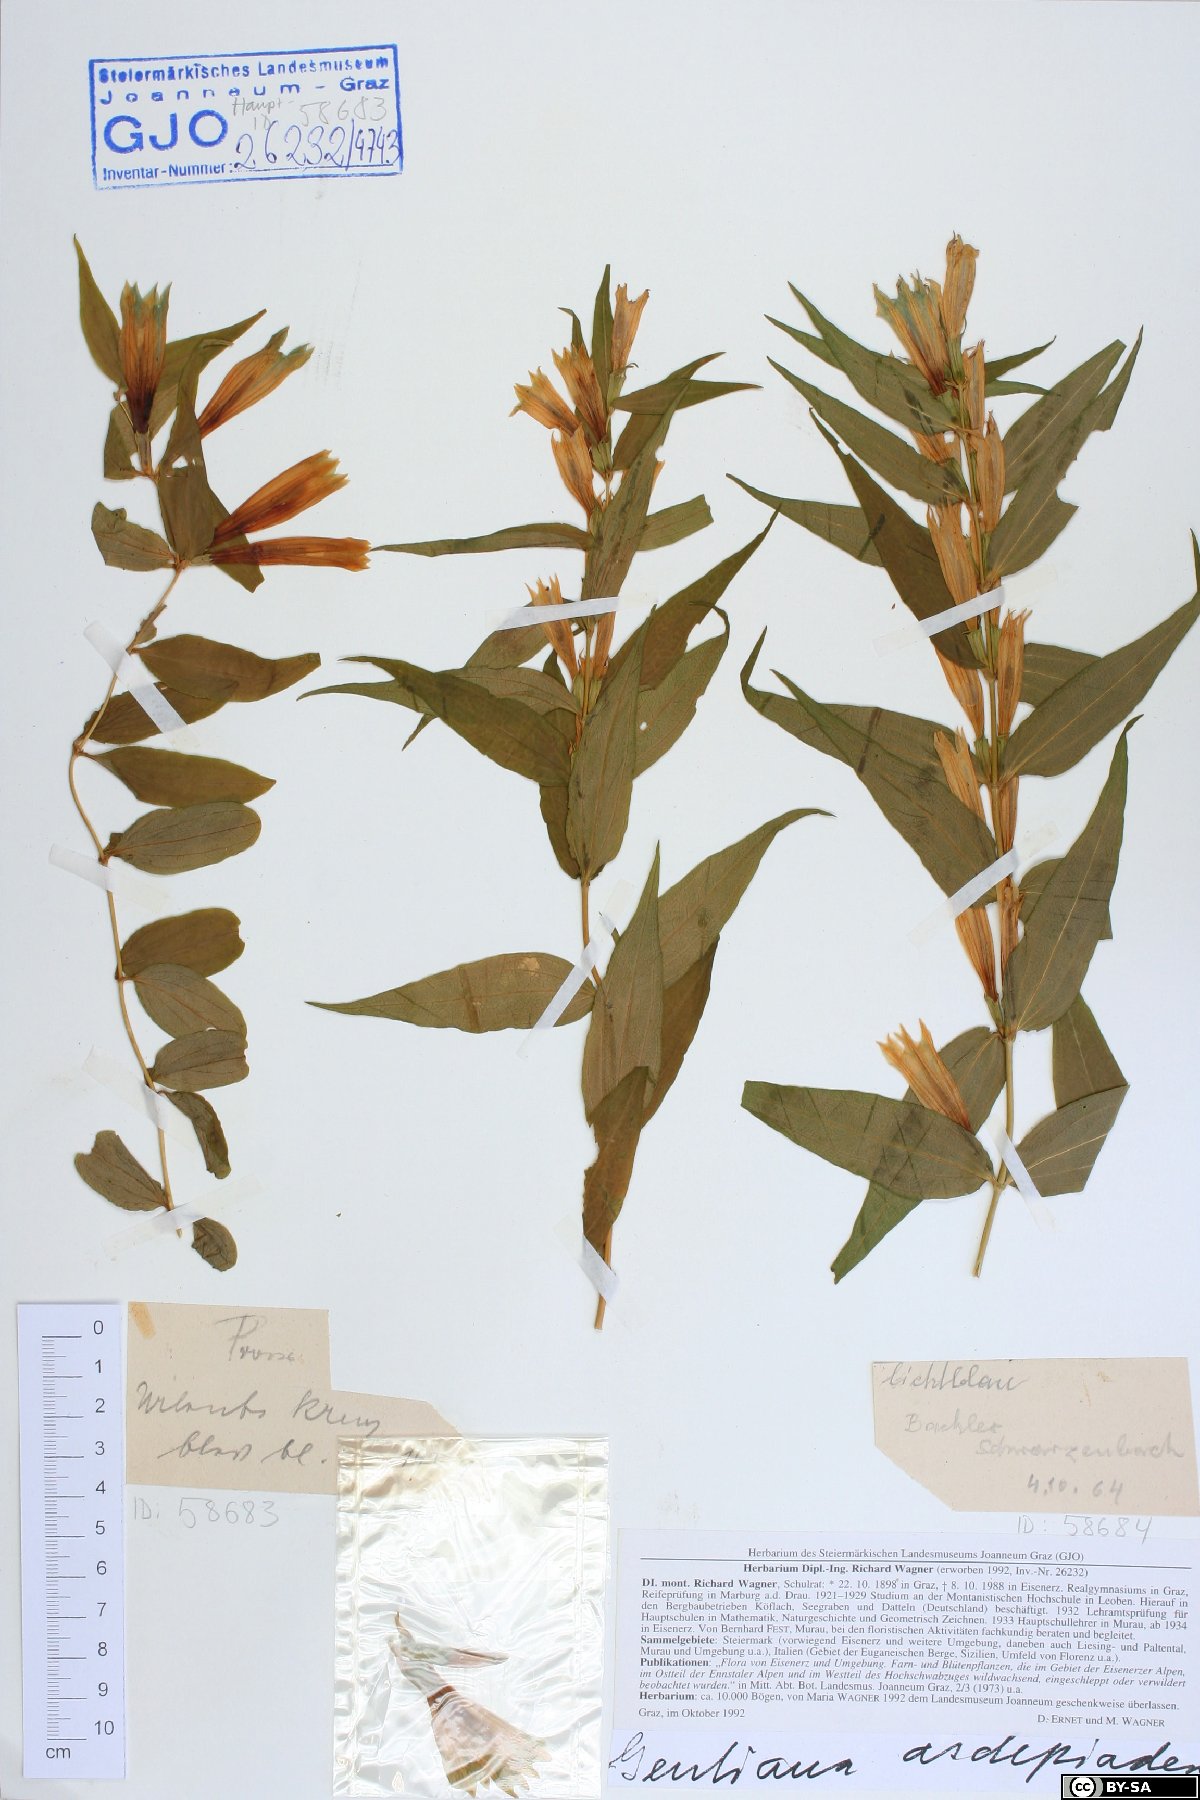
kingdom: Plantae
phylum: Tracheophyta
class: Magnoliopsida
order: Gentianales
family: Gentianaceae
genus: Gentiana
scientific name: Gentiana asclepiadea
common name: Willow gentian
